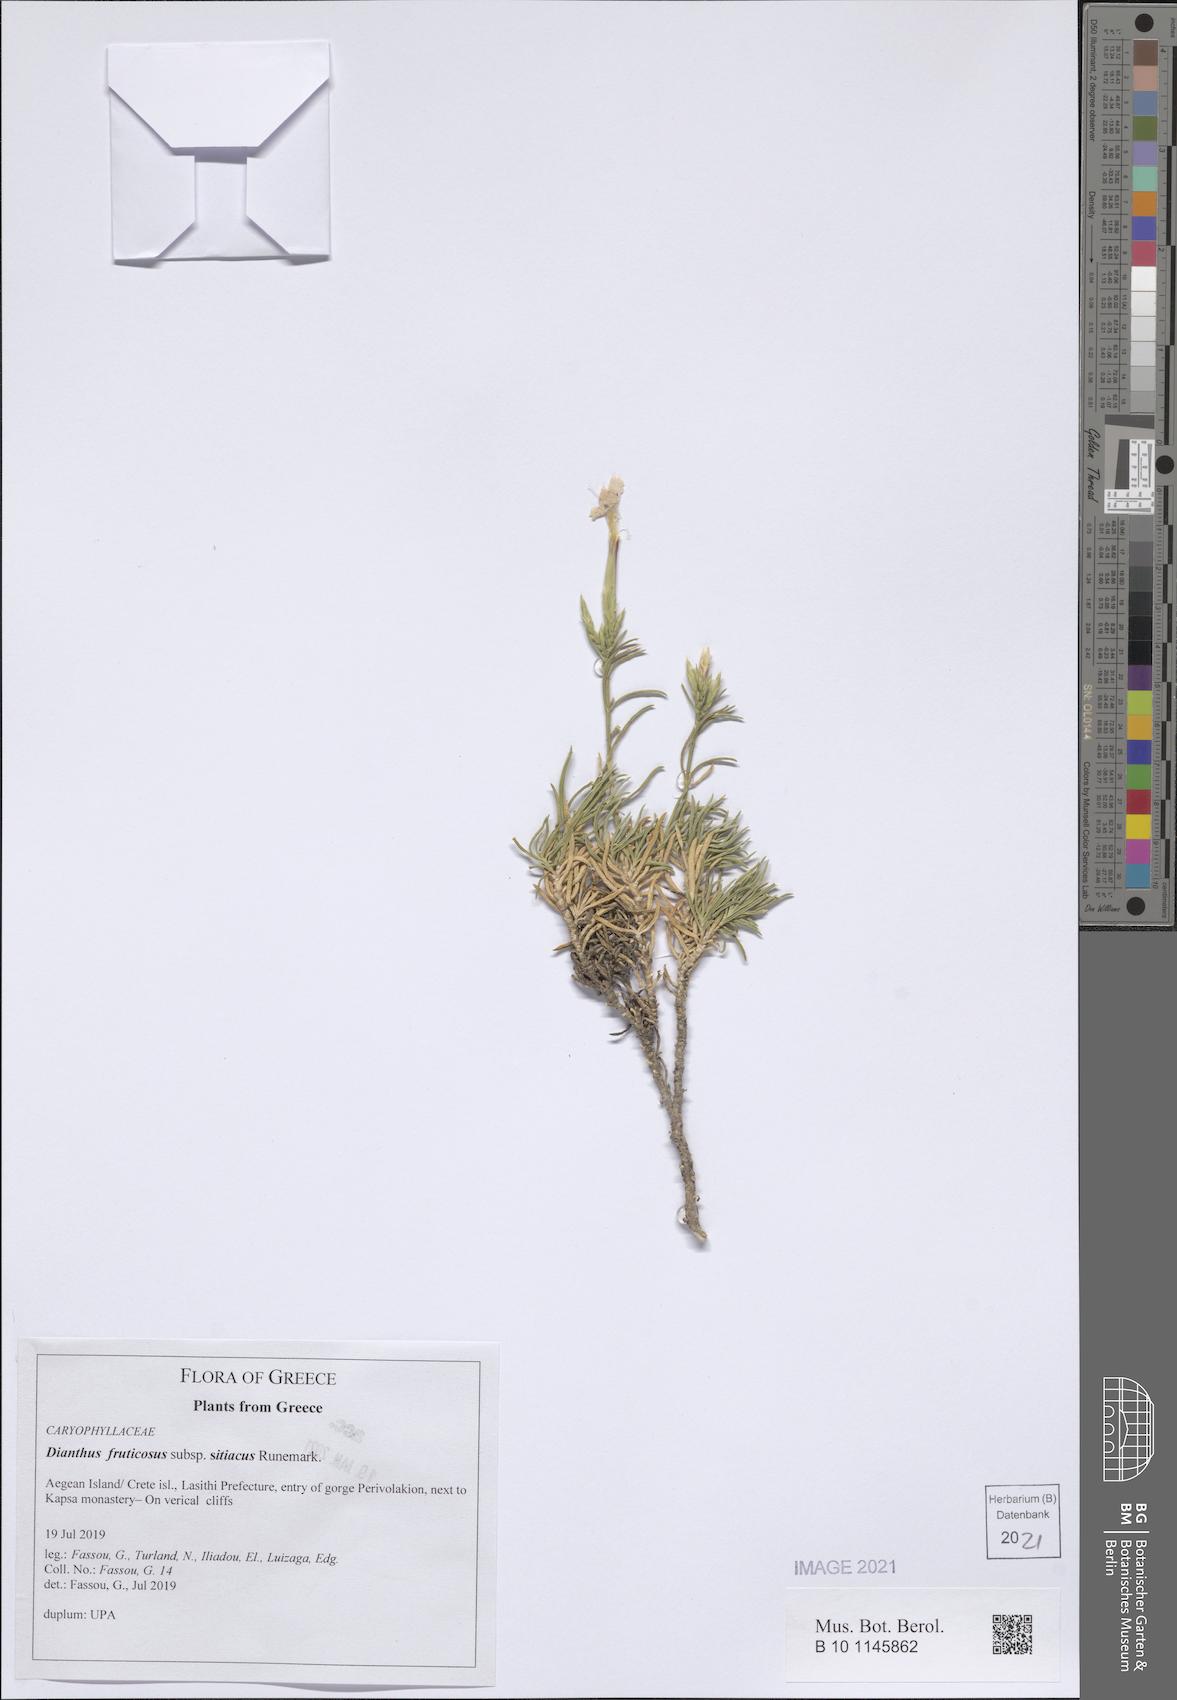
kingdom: Plantae
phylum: Tracheophyta
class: Magnoliopsida
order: Caryophyllales
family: Caryophyllaceae
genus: Dianthus
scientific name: Dianthus fruticosus
